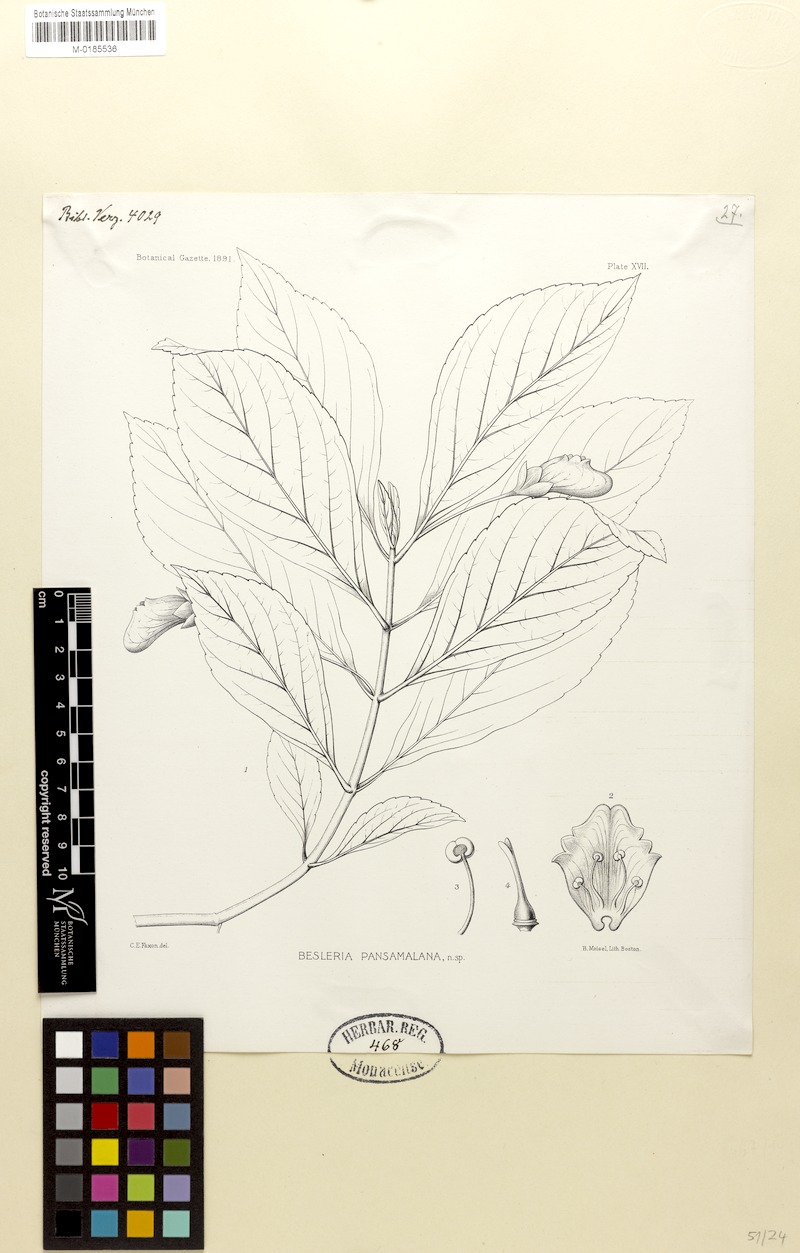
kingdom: Plantae
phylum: Tracheophyta
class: Magnoliopsida
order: Lamiales
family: Gesneriaceae
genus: Gasteranthus
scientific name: Gasteranthus pansamalanus
